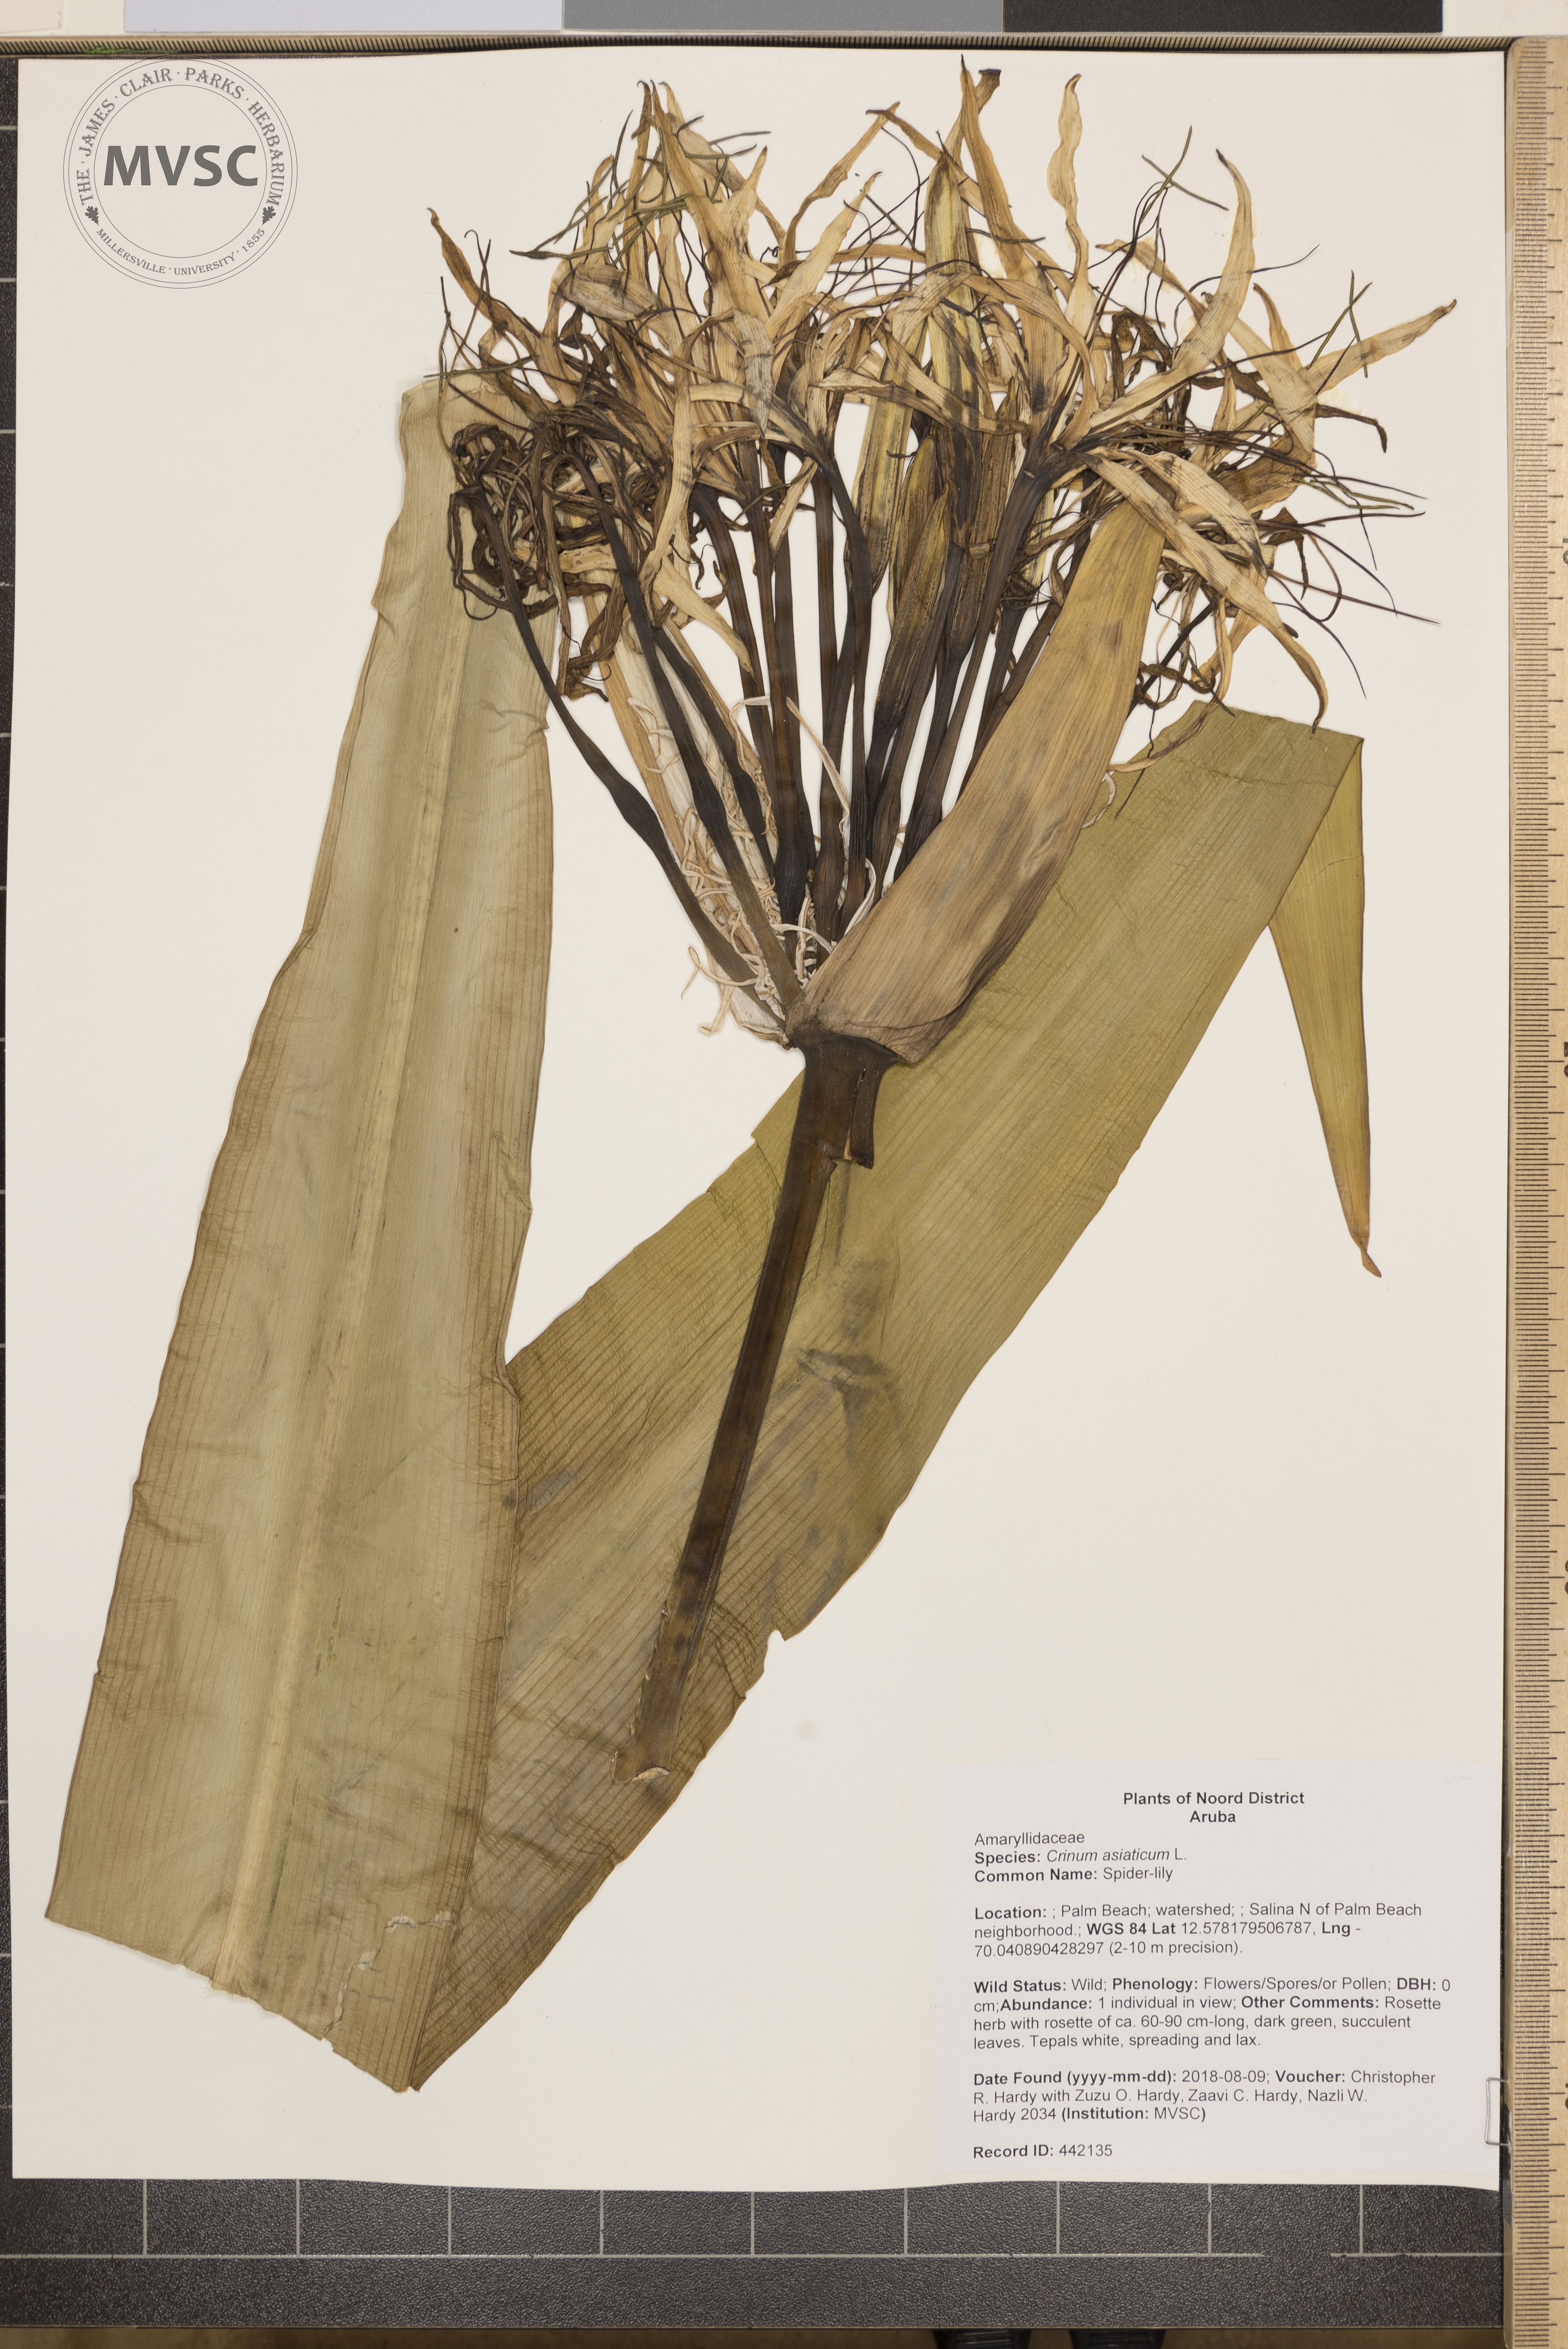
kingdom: Plantae
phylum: Tracheophyta
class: Liliopsida
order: Asparagales
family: Amaryllidaceae
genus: Crinum
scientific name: Crinum asiaticum
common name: Spider-lily
